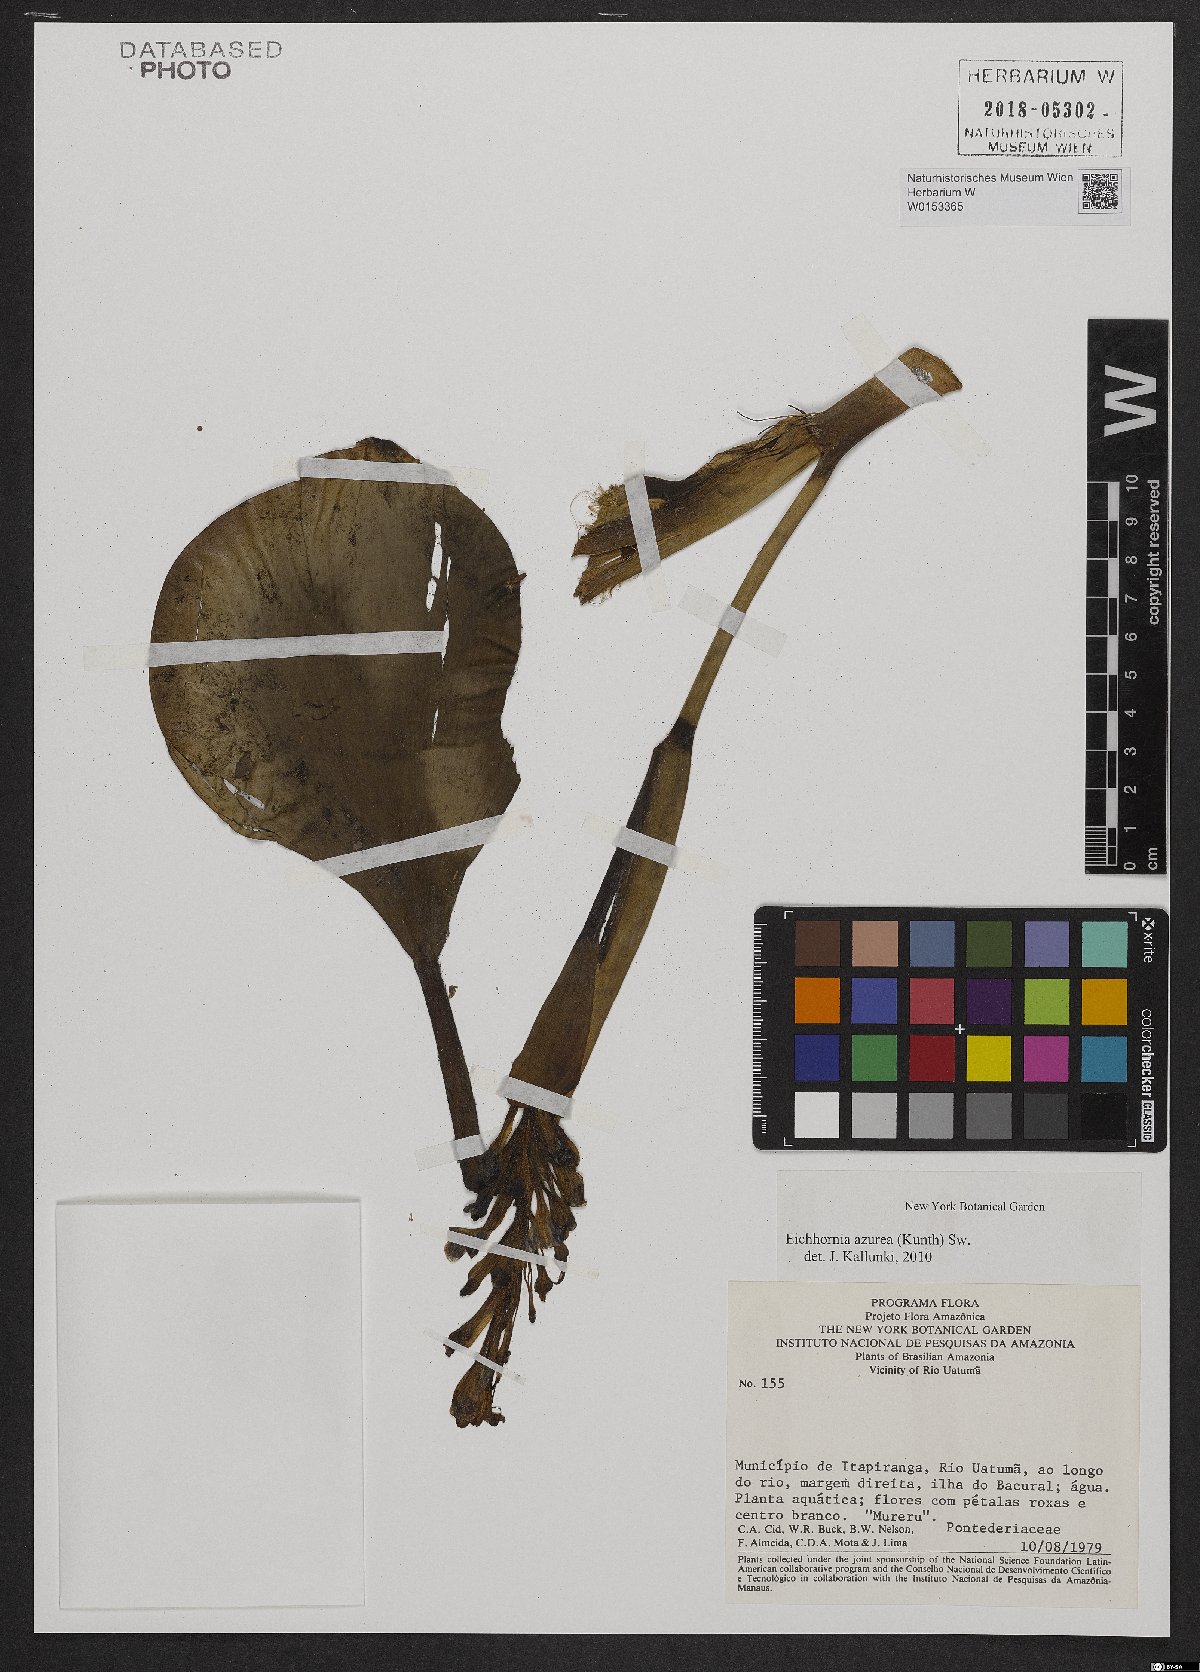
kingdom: Plantae
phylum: Tracheophyta
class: Liliopsida
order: Commelinales
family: Pontederiaceae
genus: Pontederia
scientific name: Pontederia azurea
